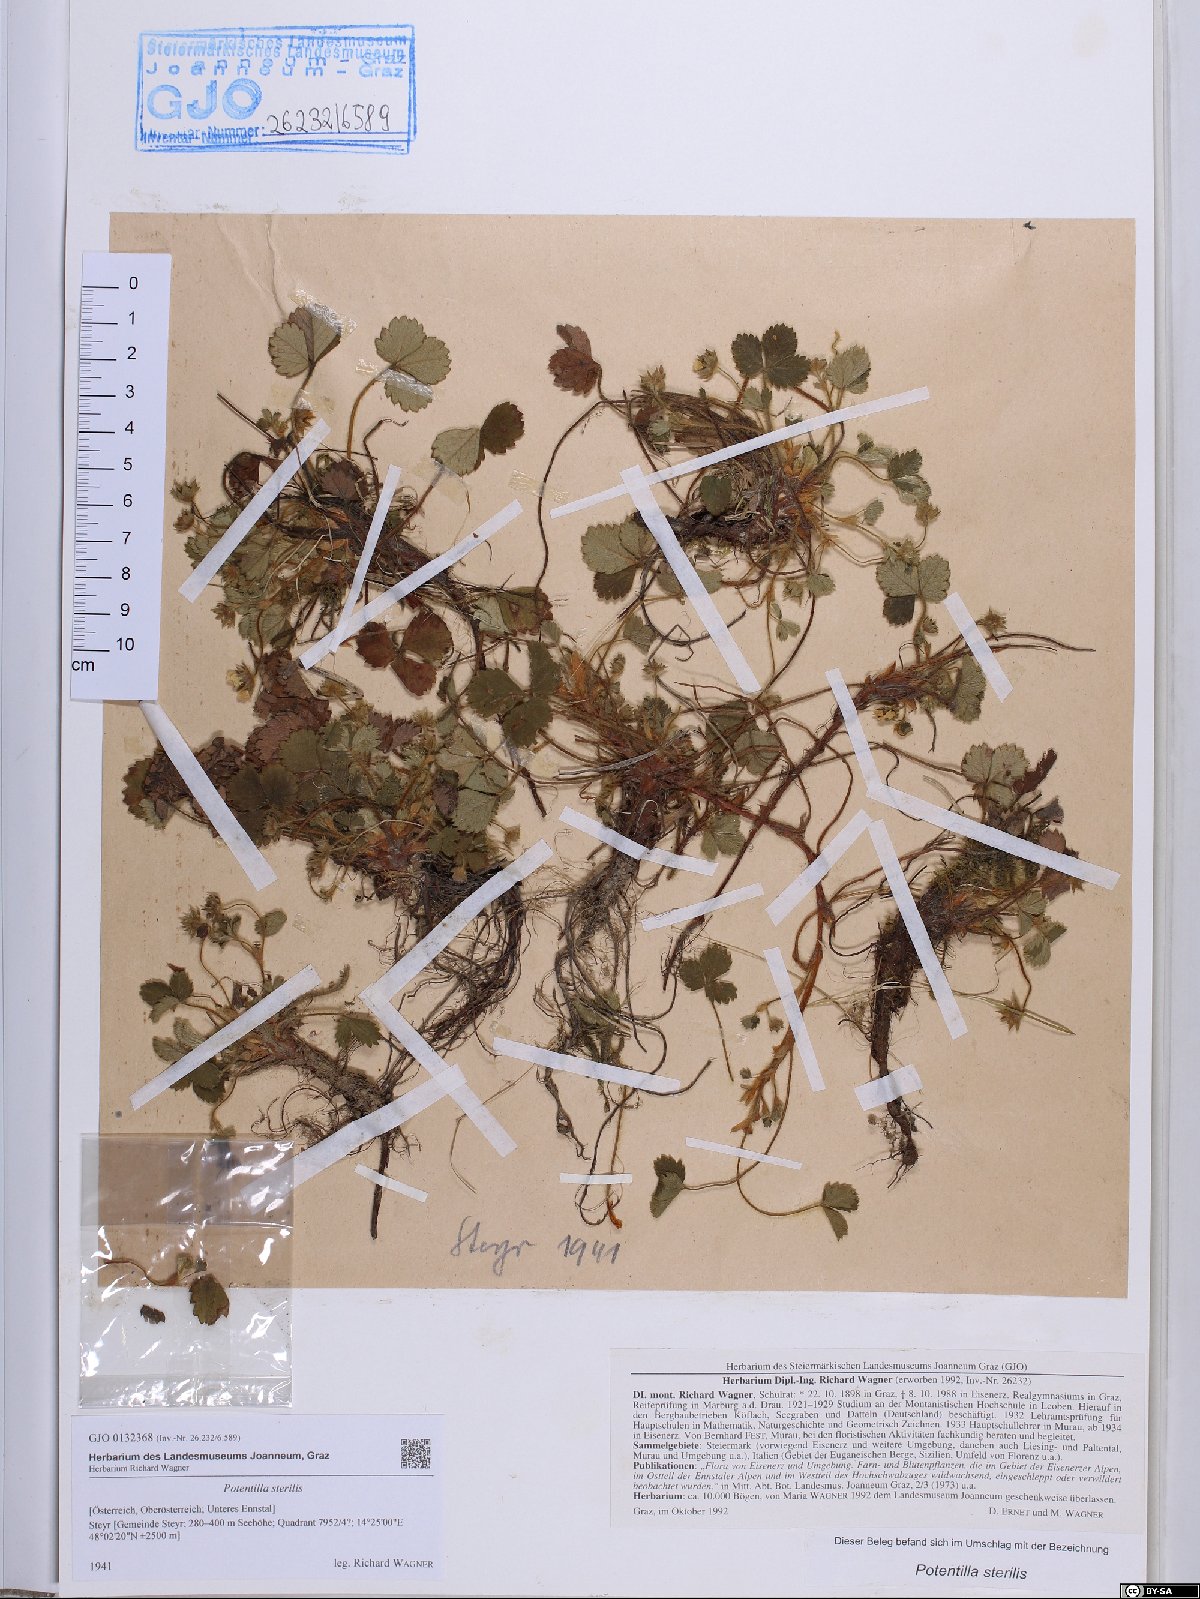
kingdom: Plantae
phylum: Tracheophyta
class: Magnoliopsida
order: Rosales
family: Rosaceae
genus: Potentilla
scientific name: Potentilla sterilis
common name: Barren strawberry
